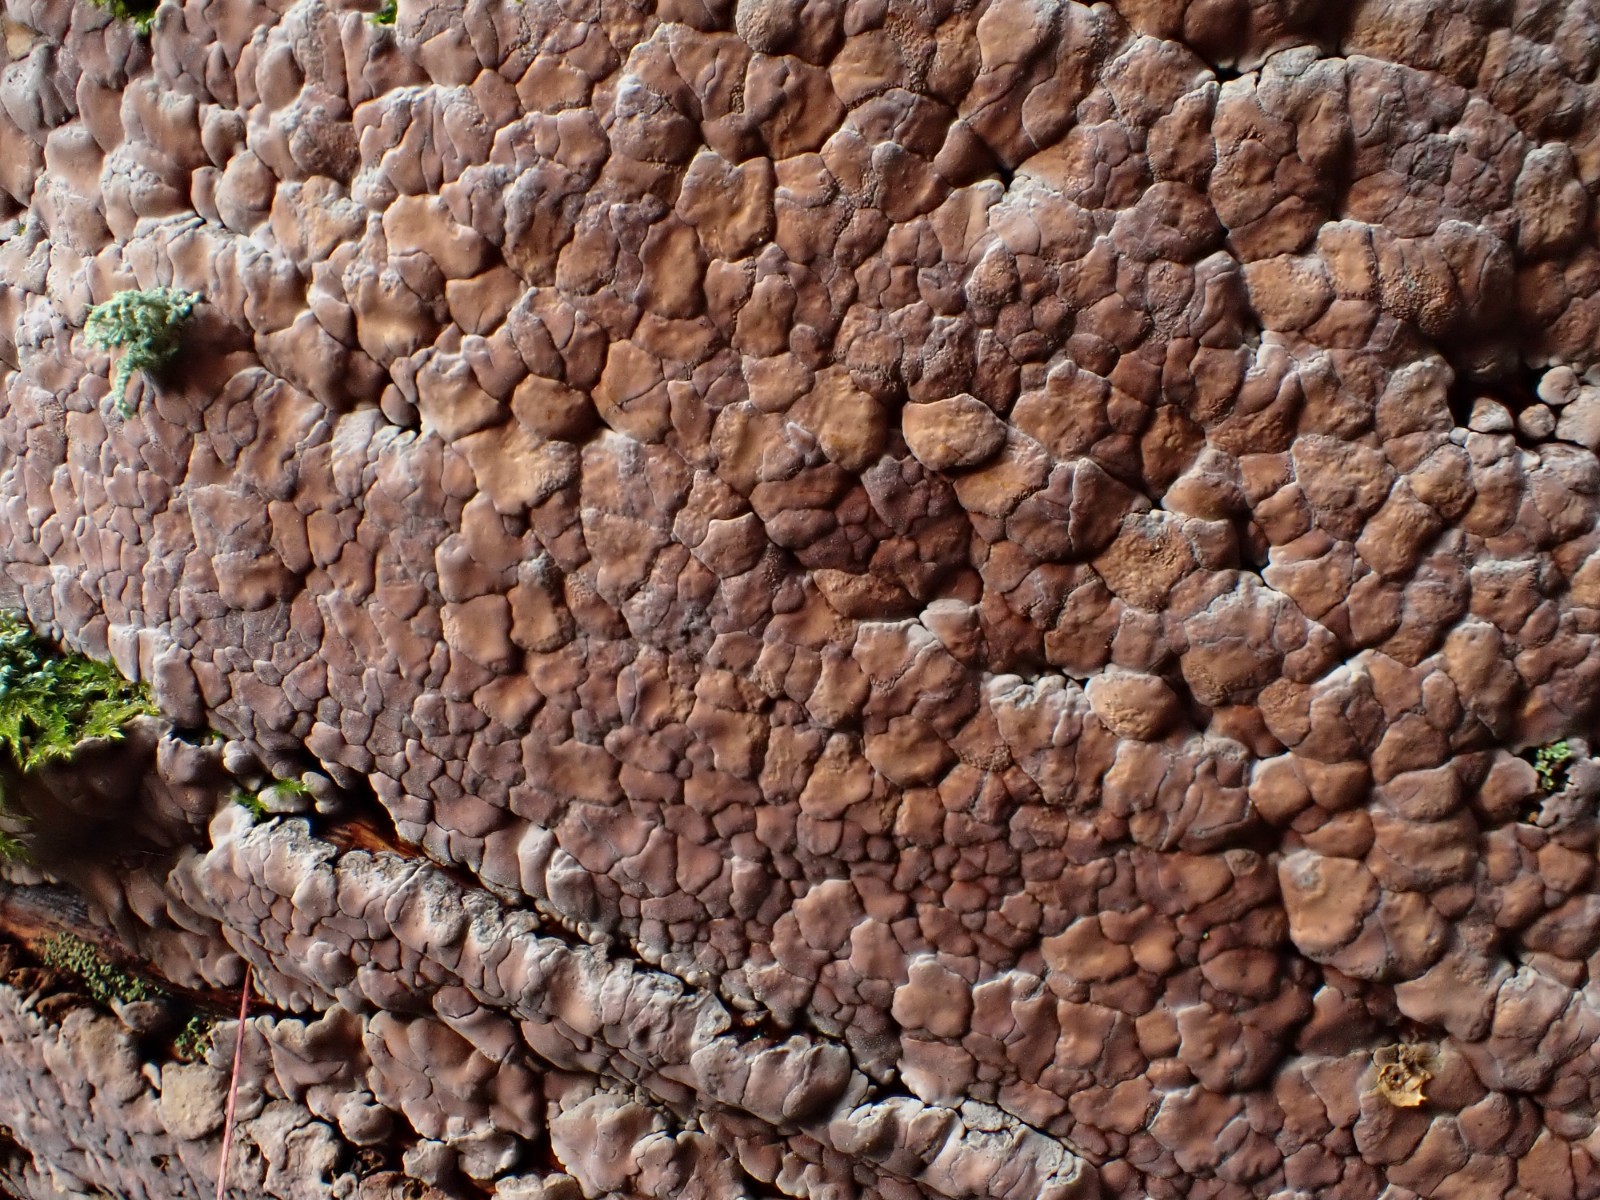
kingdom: Fungi
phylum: Basidiomycota
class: Agaricomycetes
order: Russulales
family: Stereaceae
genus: Xylobolus
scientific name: Xylobolus frustulatus
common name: mønster-lædersvamp
